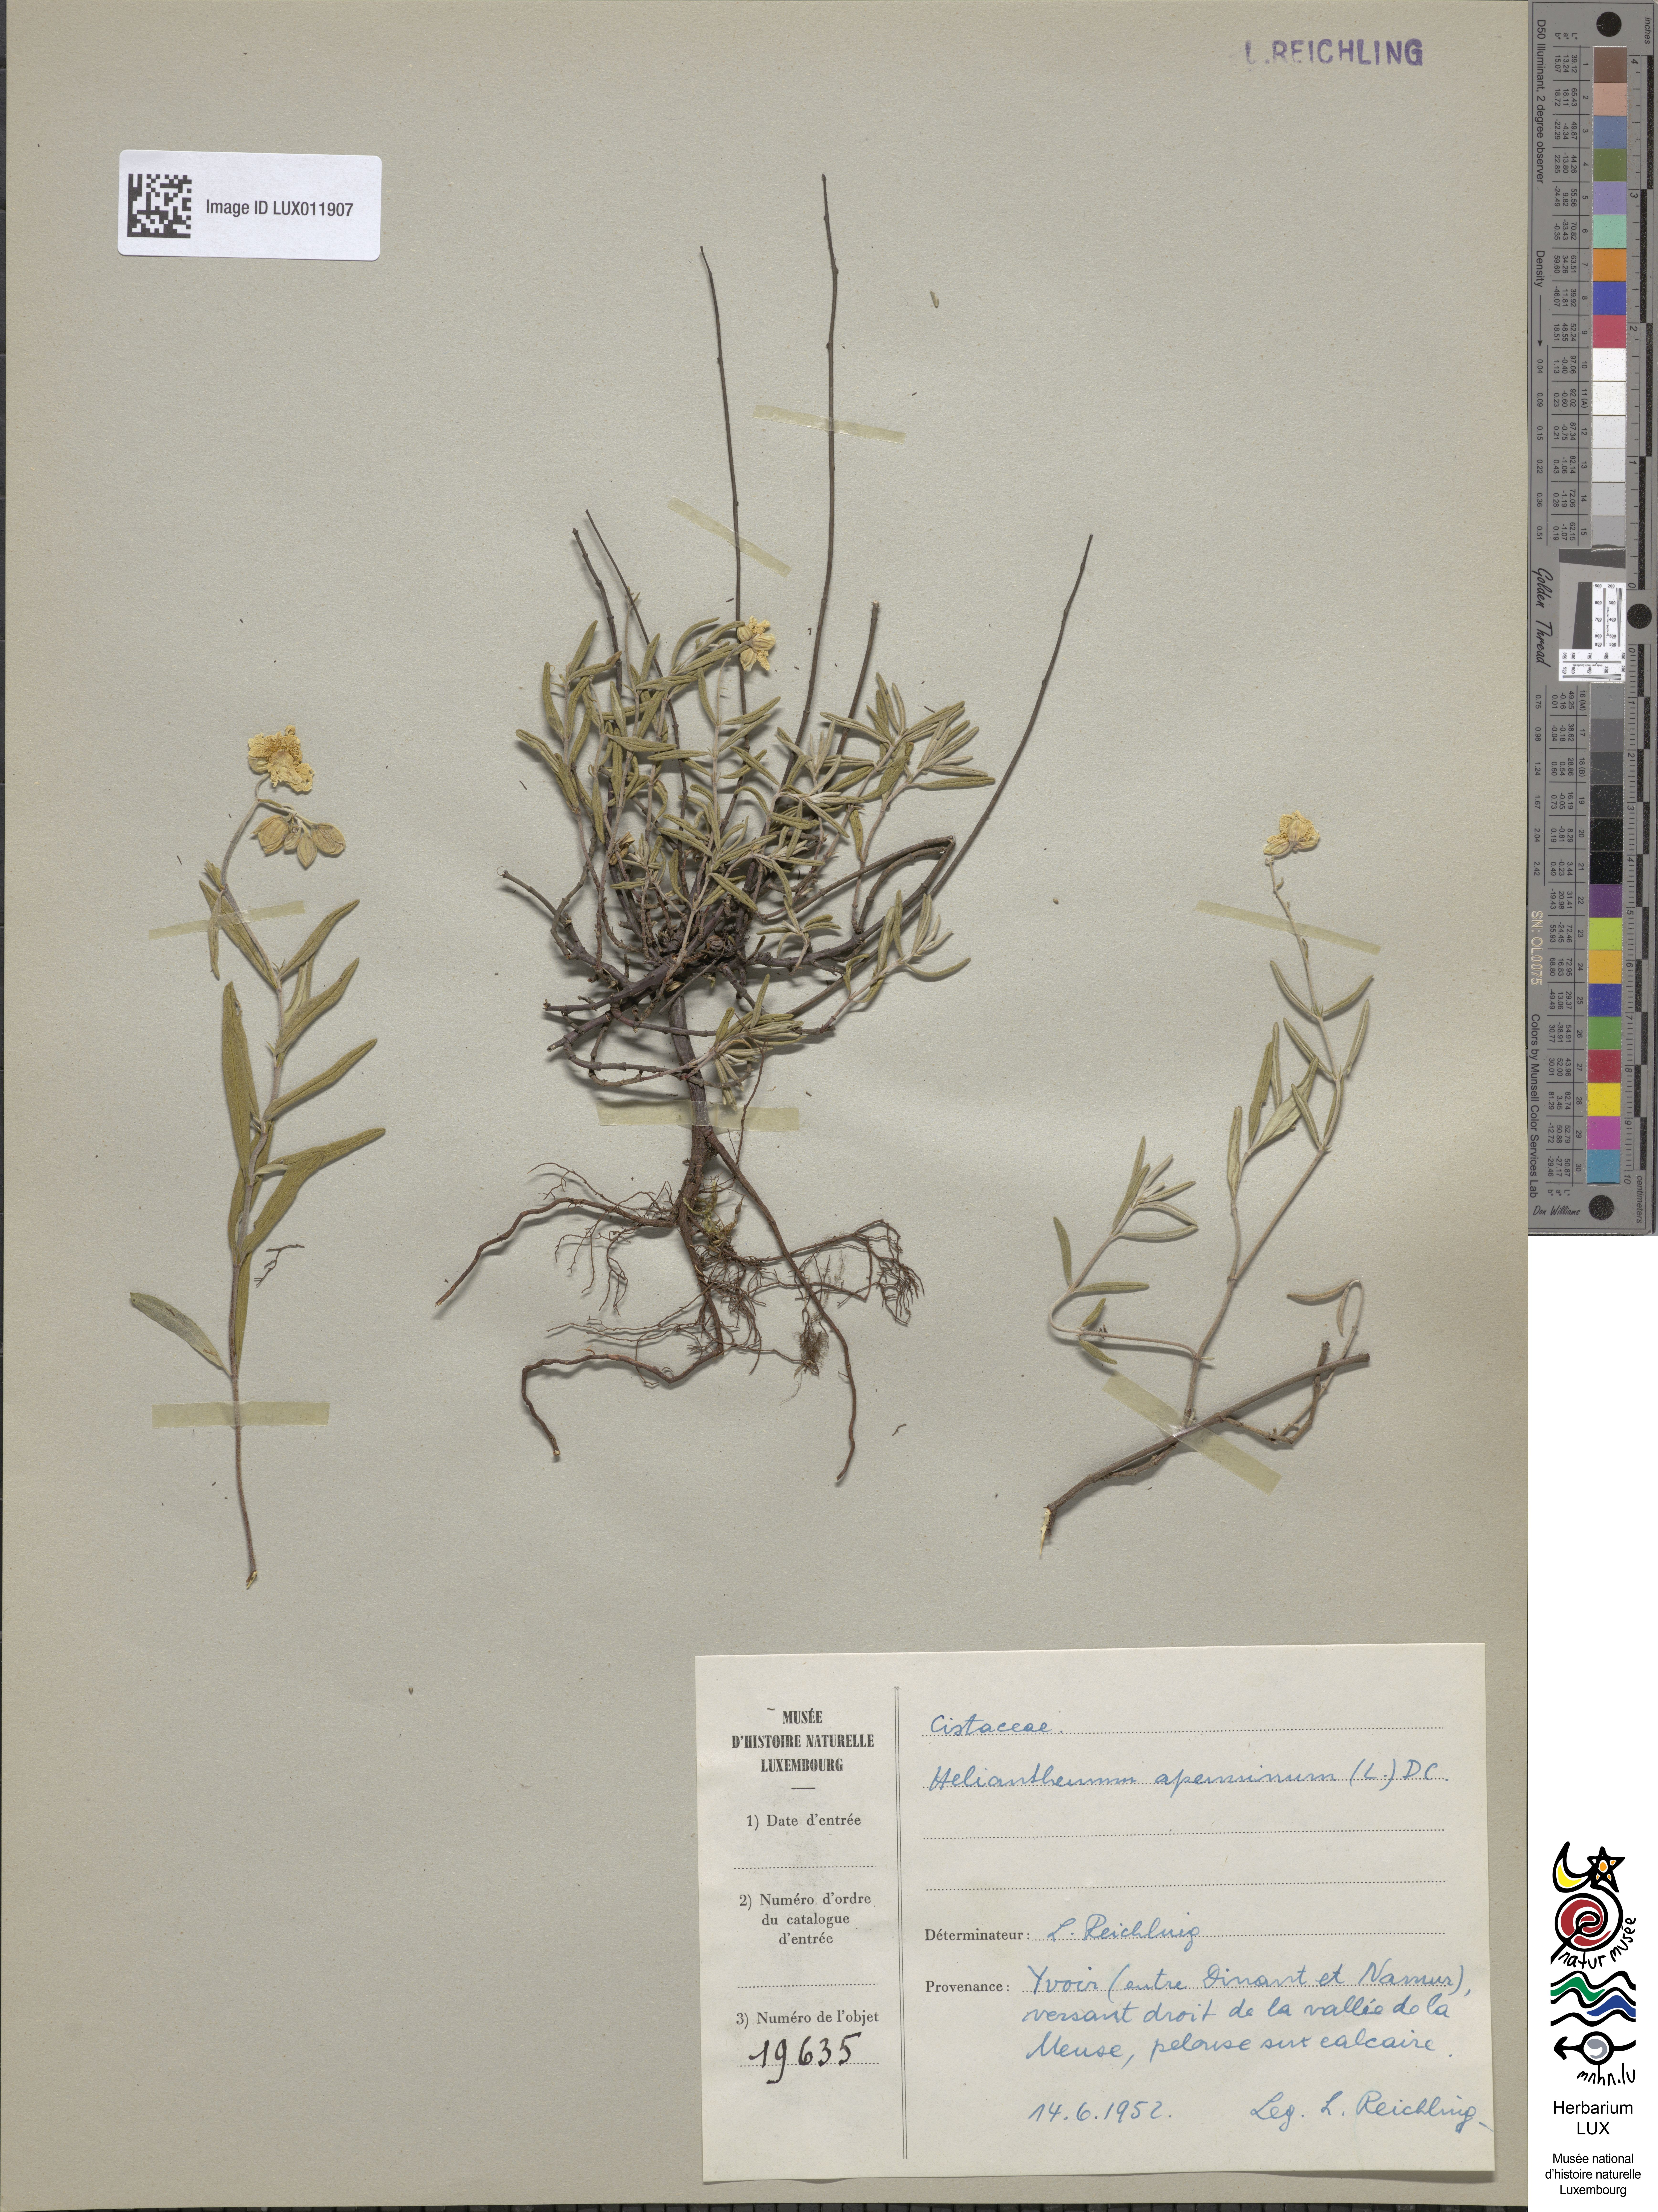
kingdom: Plantae
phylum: Tracheophyta
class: Magnoliopsida
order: Malvales
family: Cistaceae
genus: Helianthemum
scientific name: Helianthemum apenninum
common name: White rock-rose
